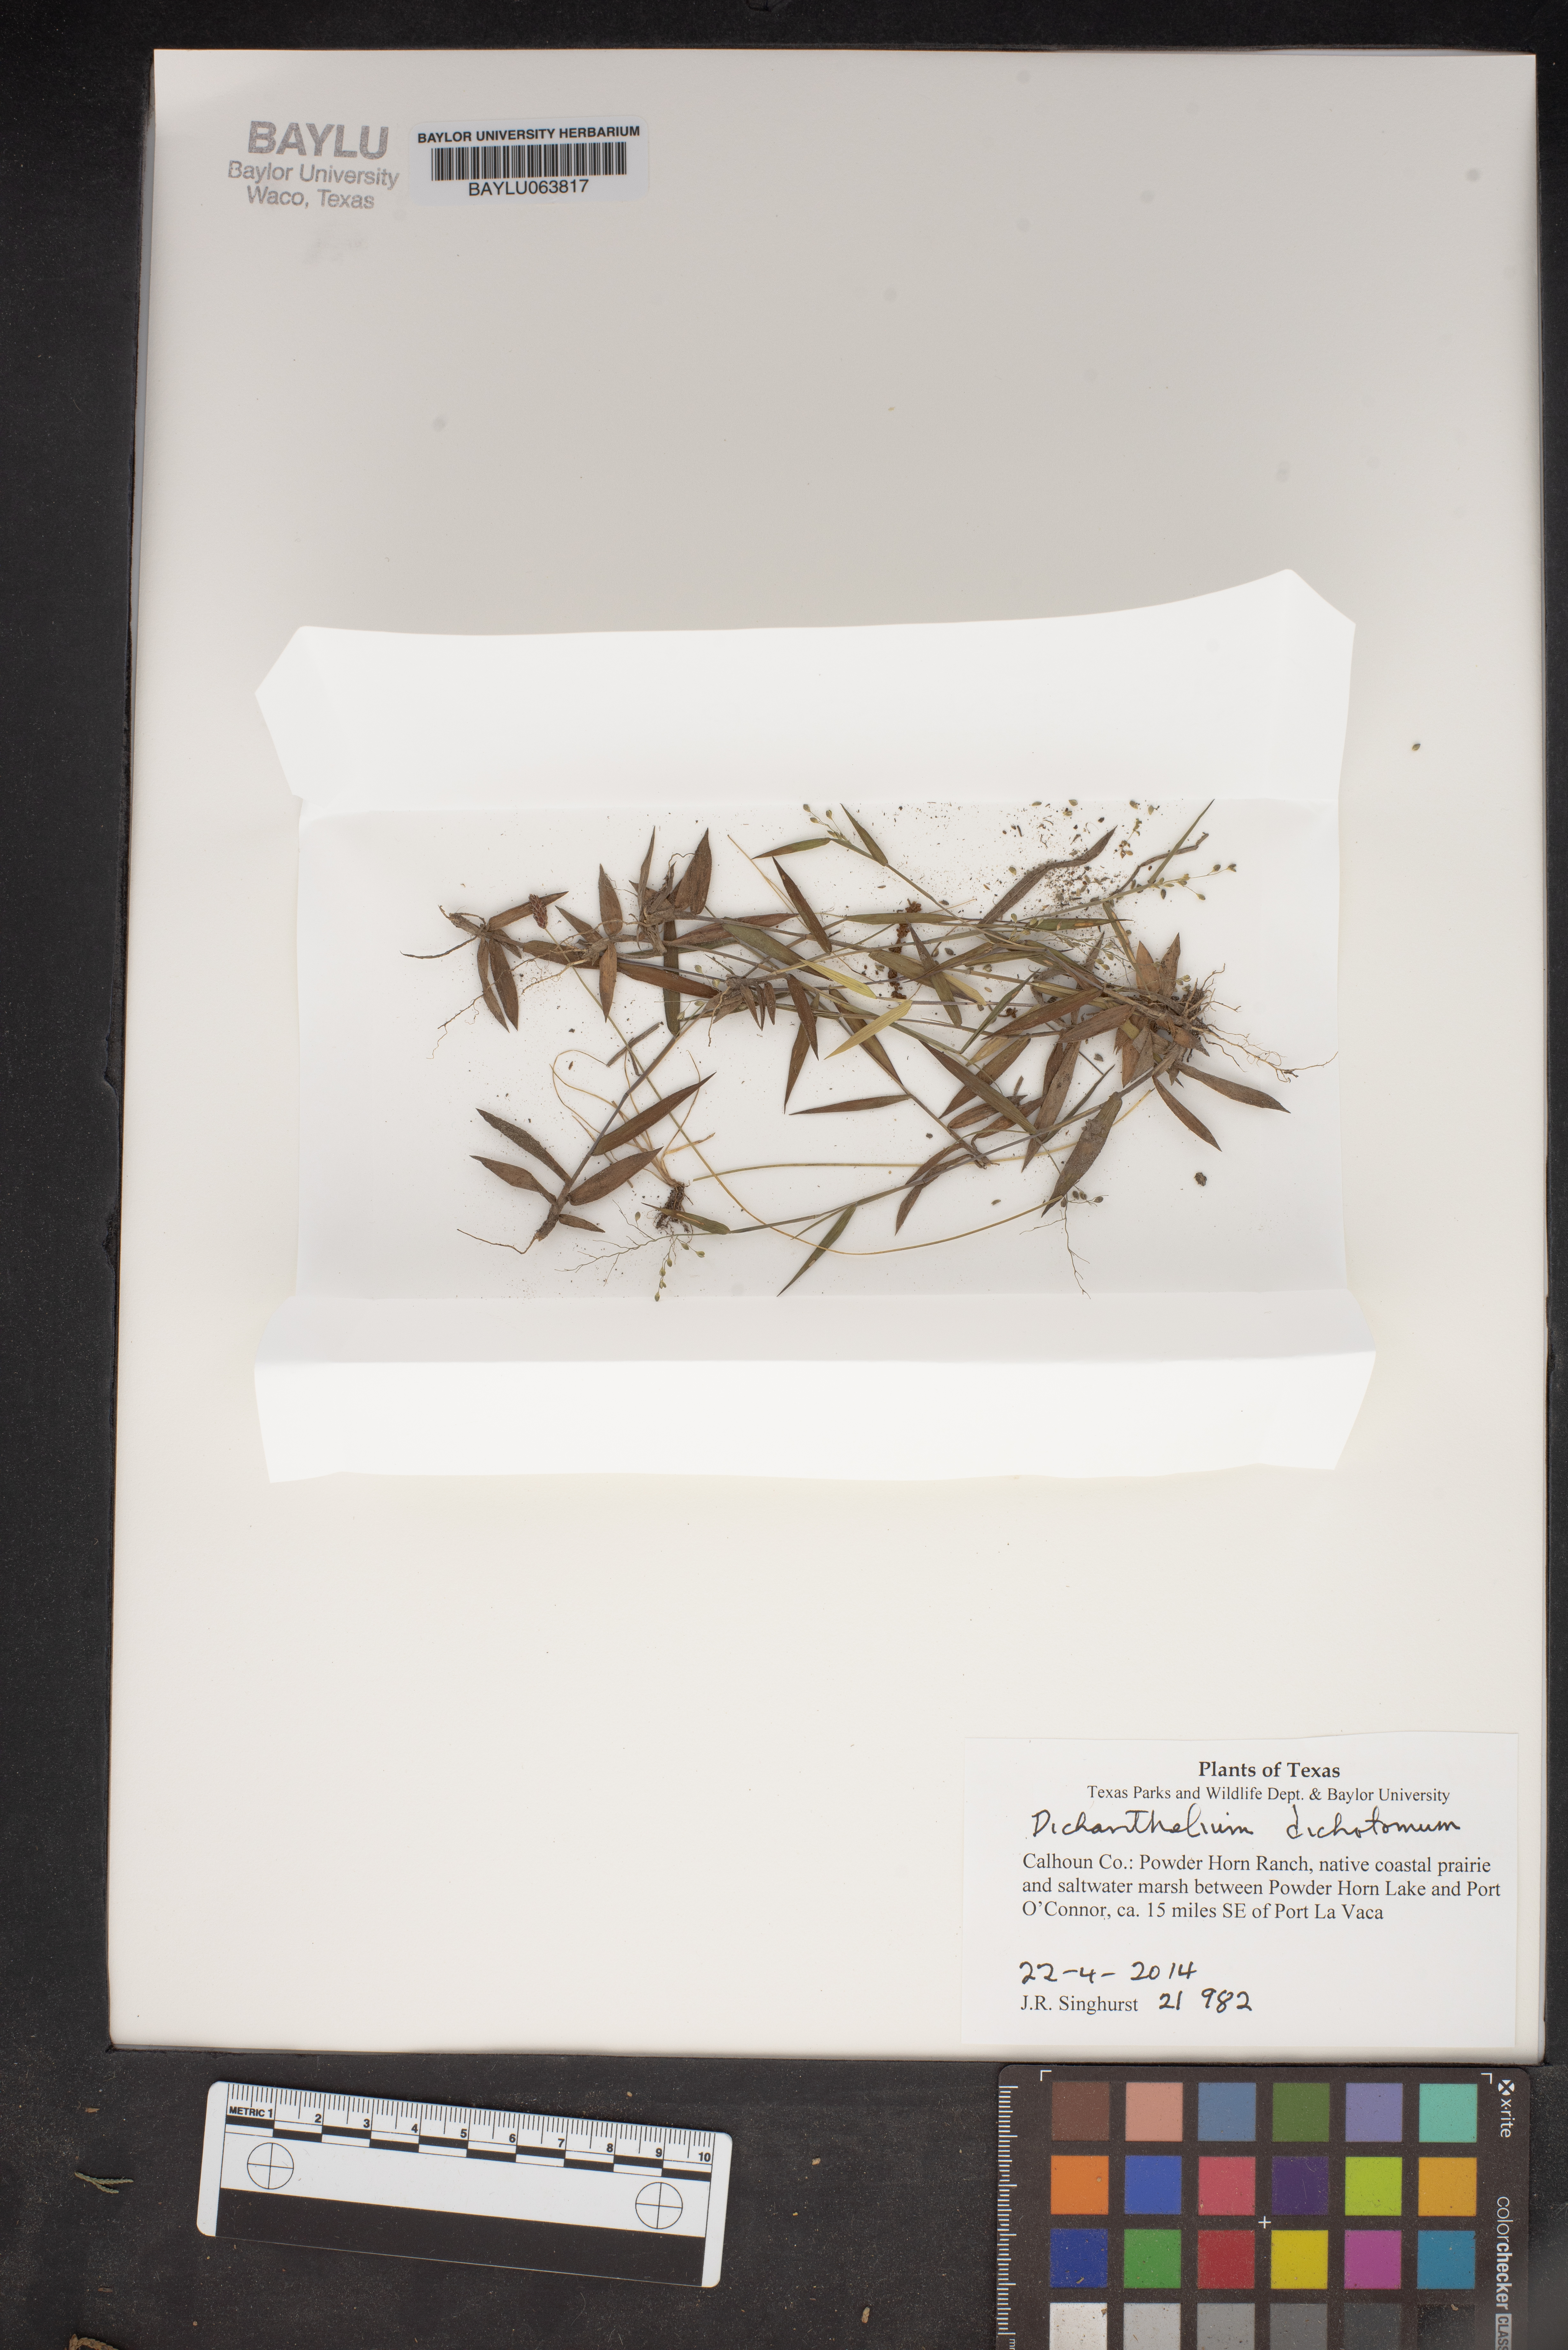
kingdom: Plantae
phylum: Tracheophyta
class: Liliopsida
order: Poales
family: Poaceae
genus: Dichanthelium
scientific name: Dichanthelium dichotomum
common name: Cypress panicgrass
